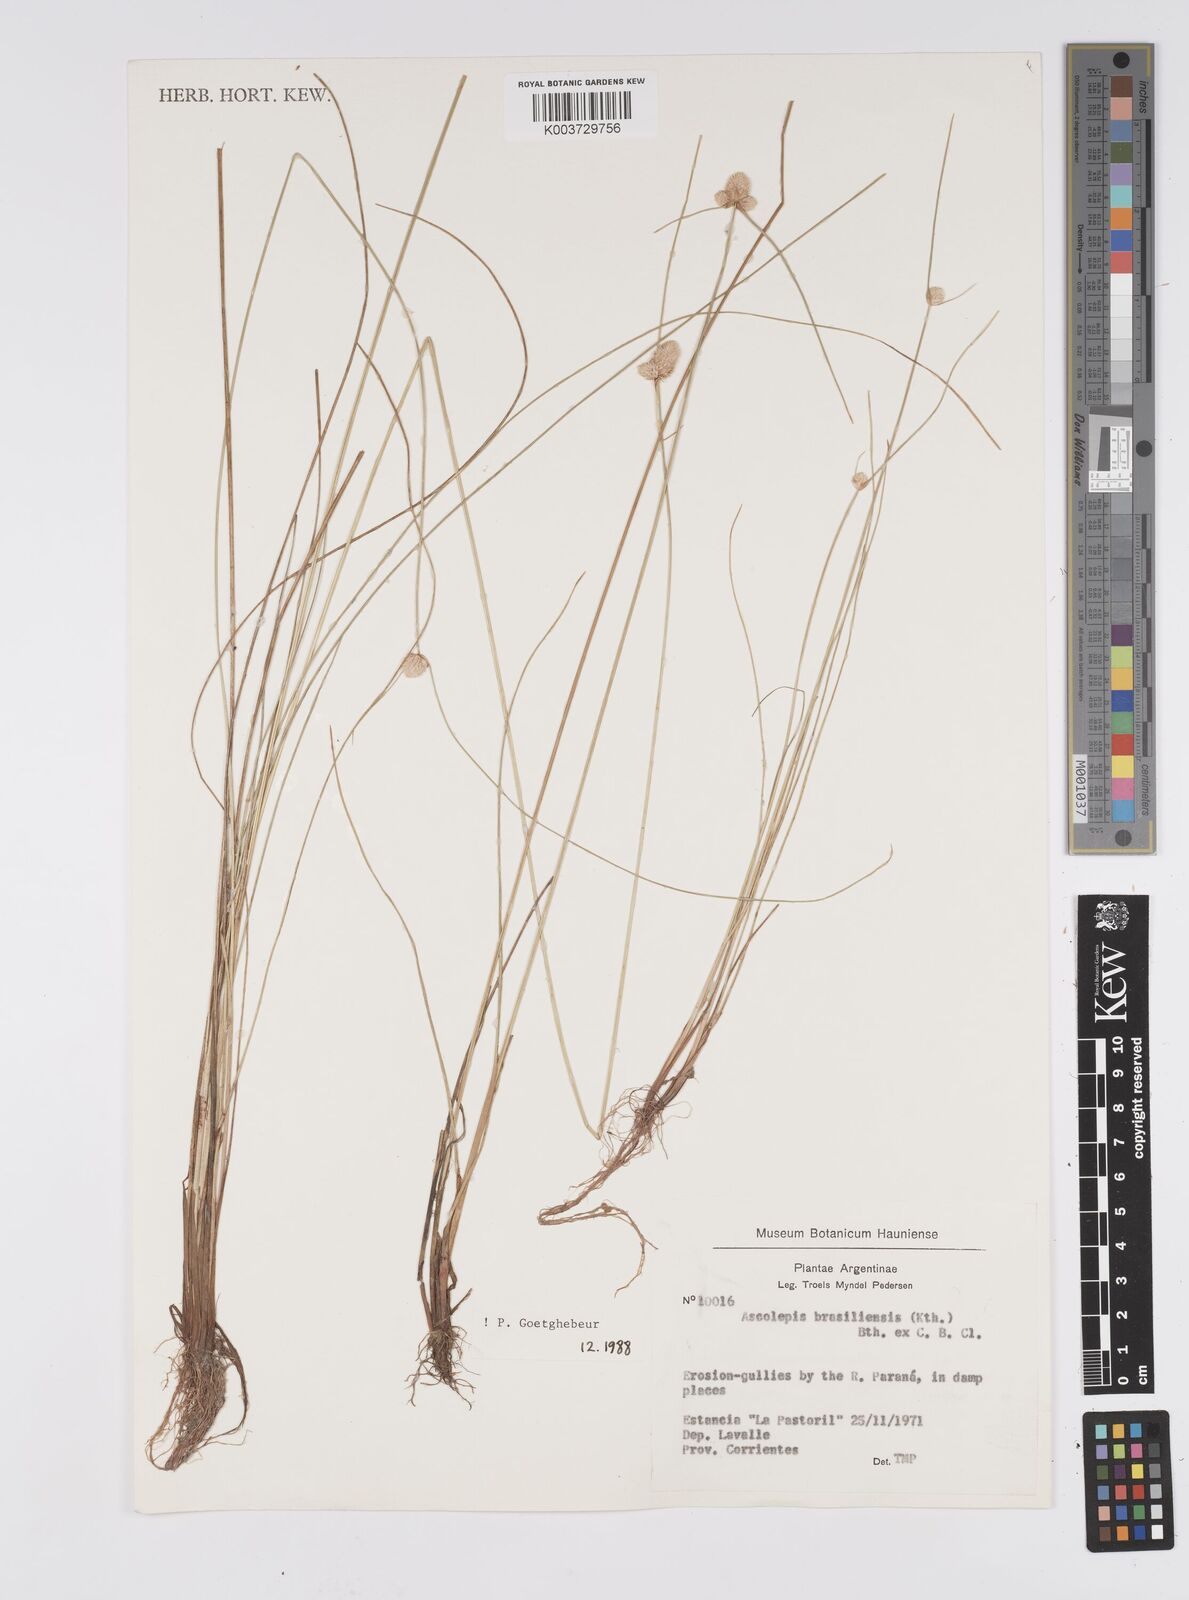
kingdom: Plantae
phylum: Tracheophyta
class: Liliopsida
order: Poales
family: Cyperaceae
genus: Cyperus
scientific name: Cyperus brasiliensis
